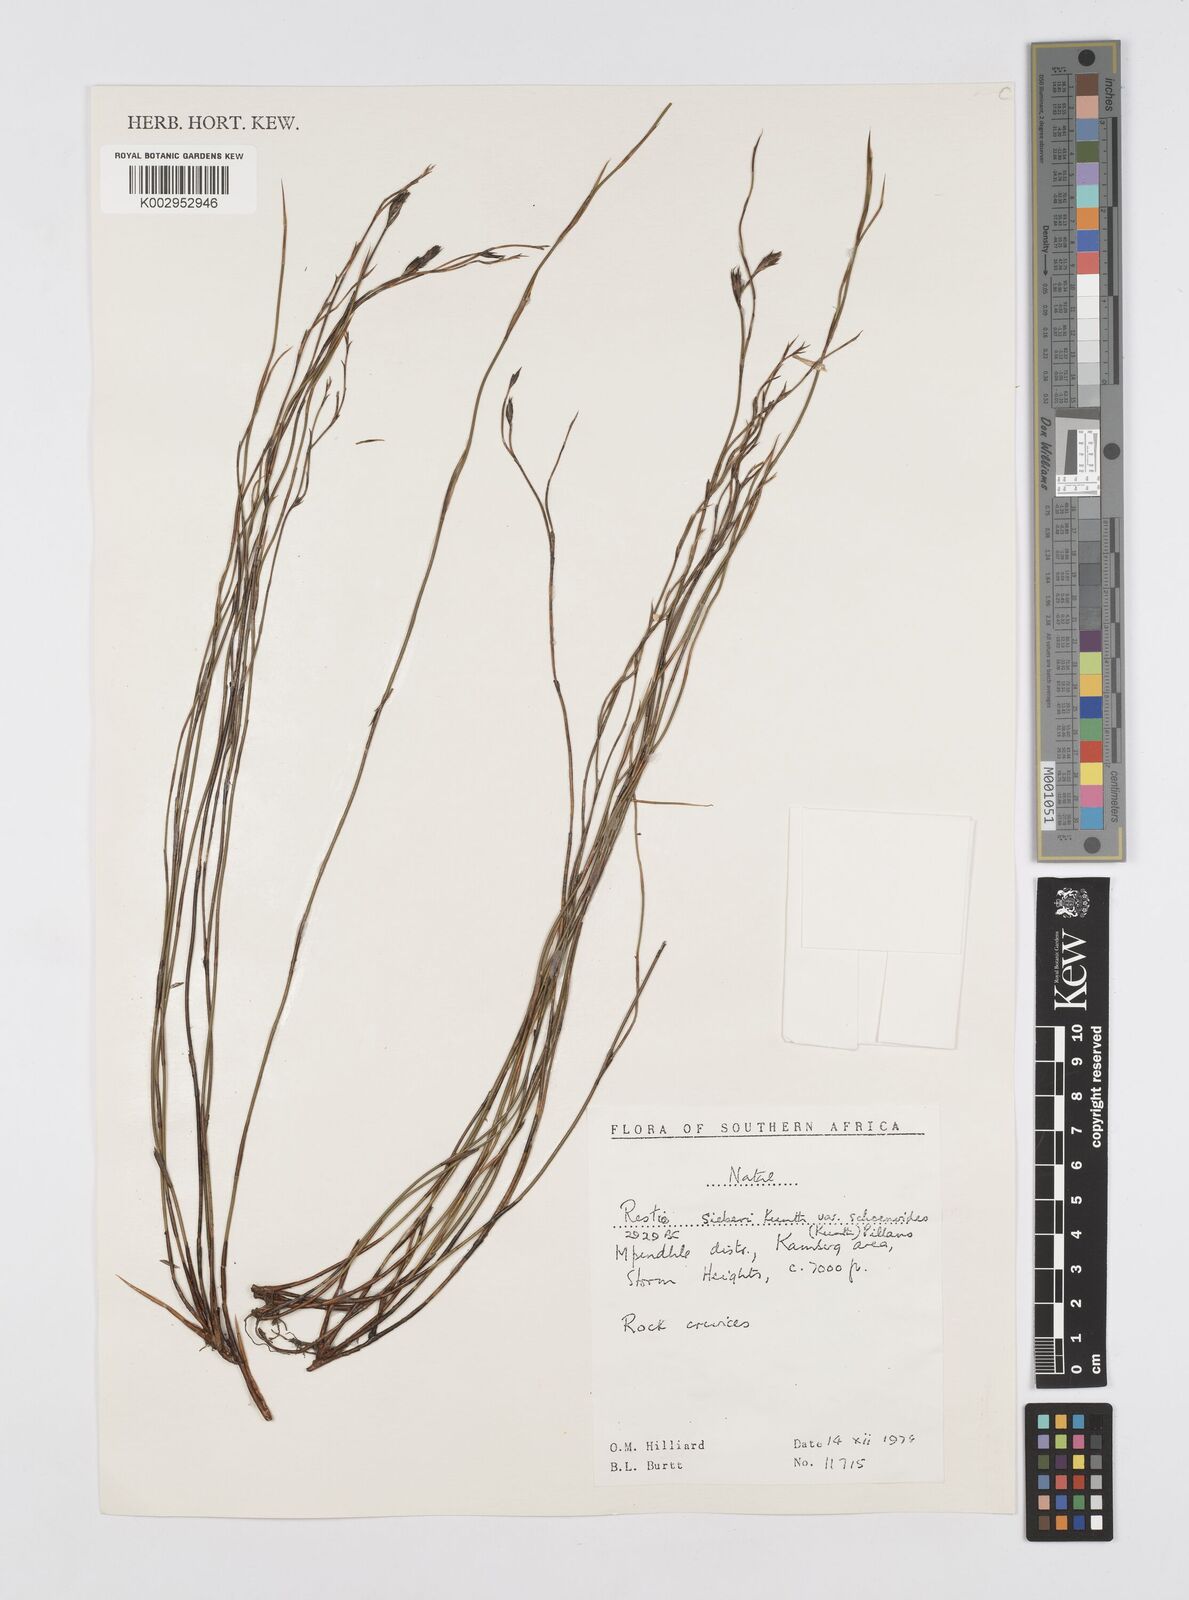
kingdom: Plantae
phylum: Tracheophyta
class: Liliopsida
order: Poales
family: Restionaceae
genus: Restio
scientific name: Restio schoenoides
